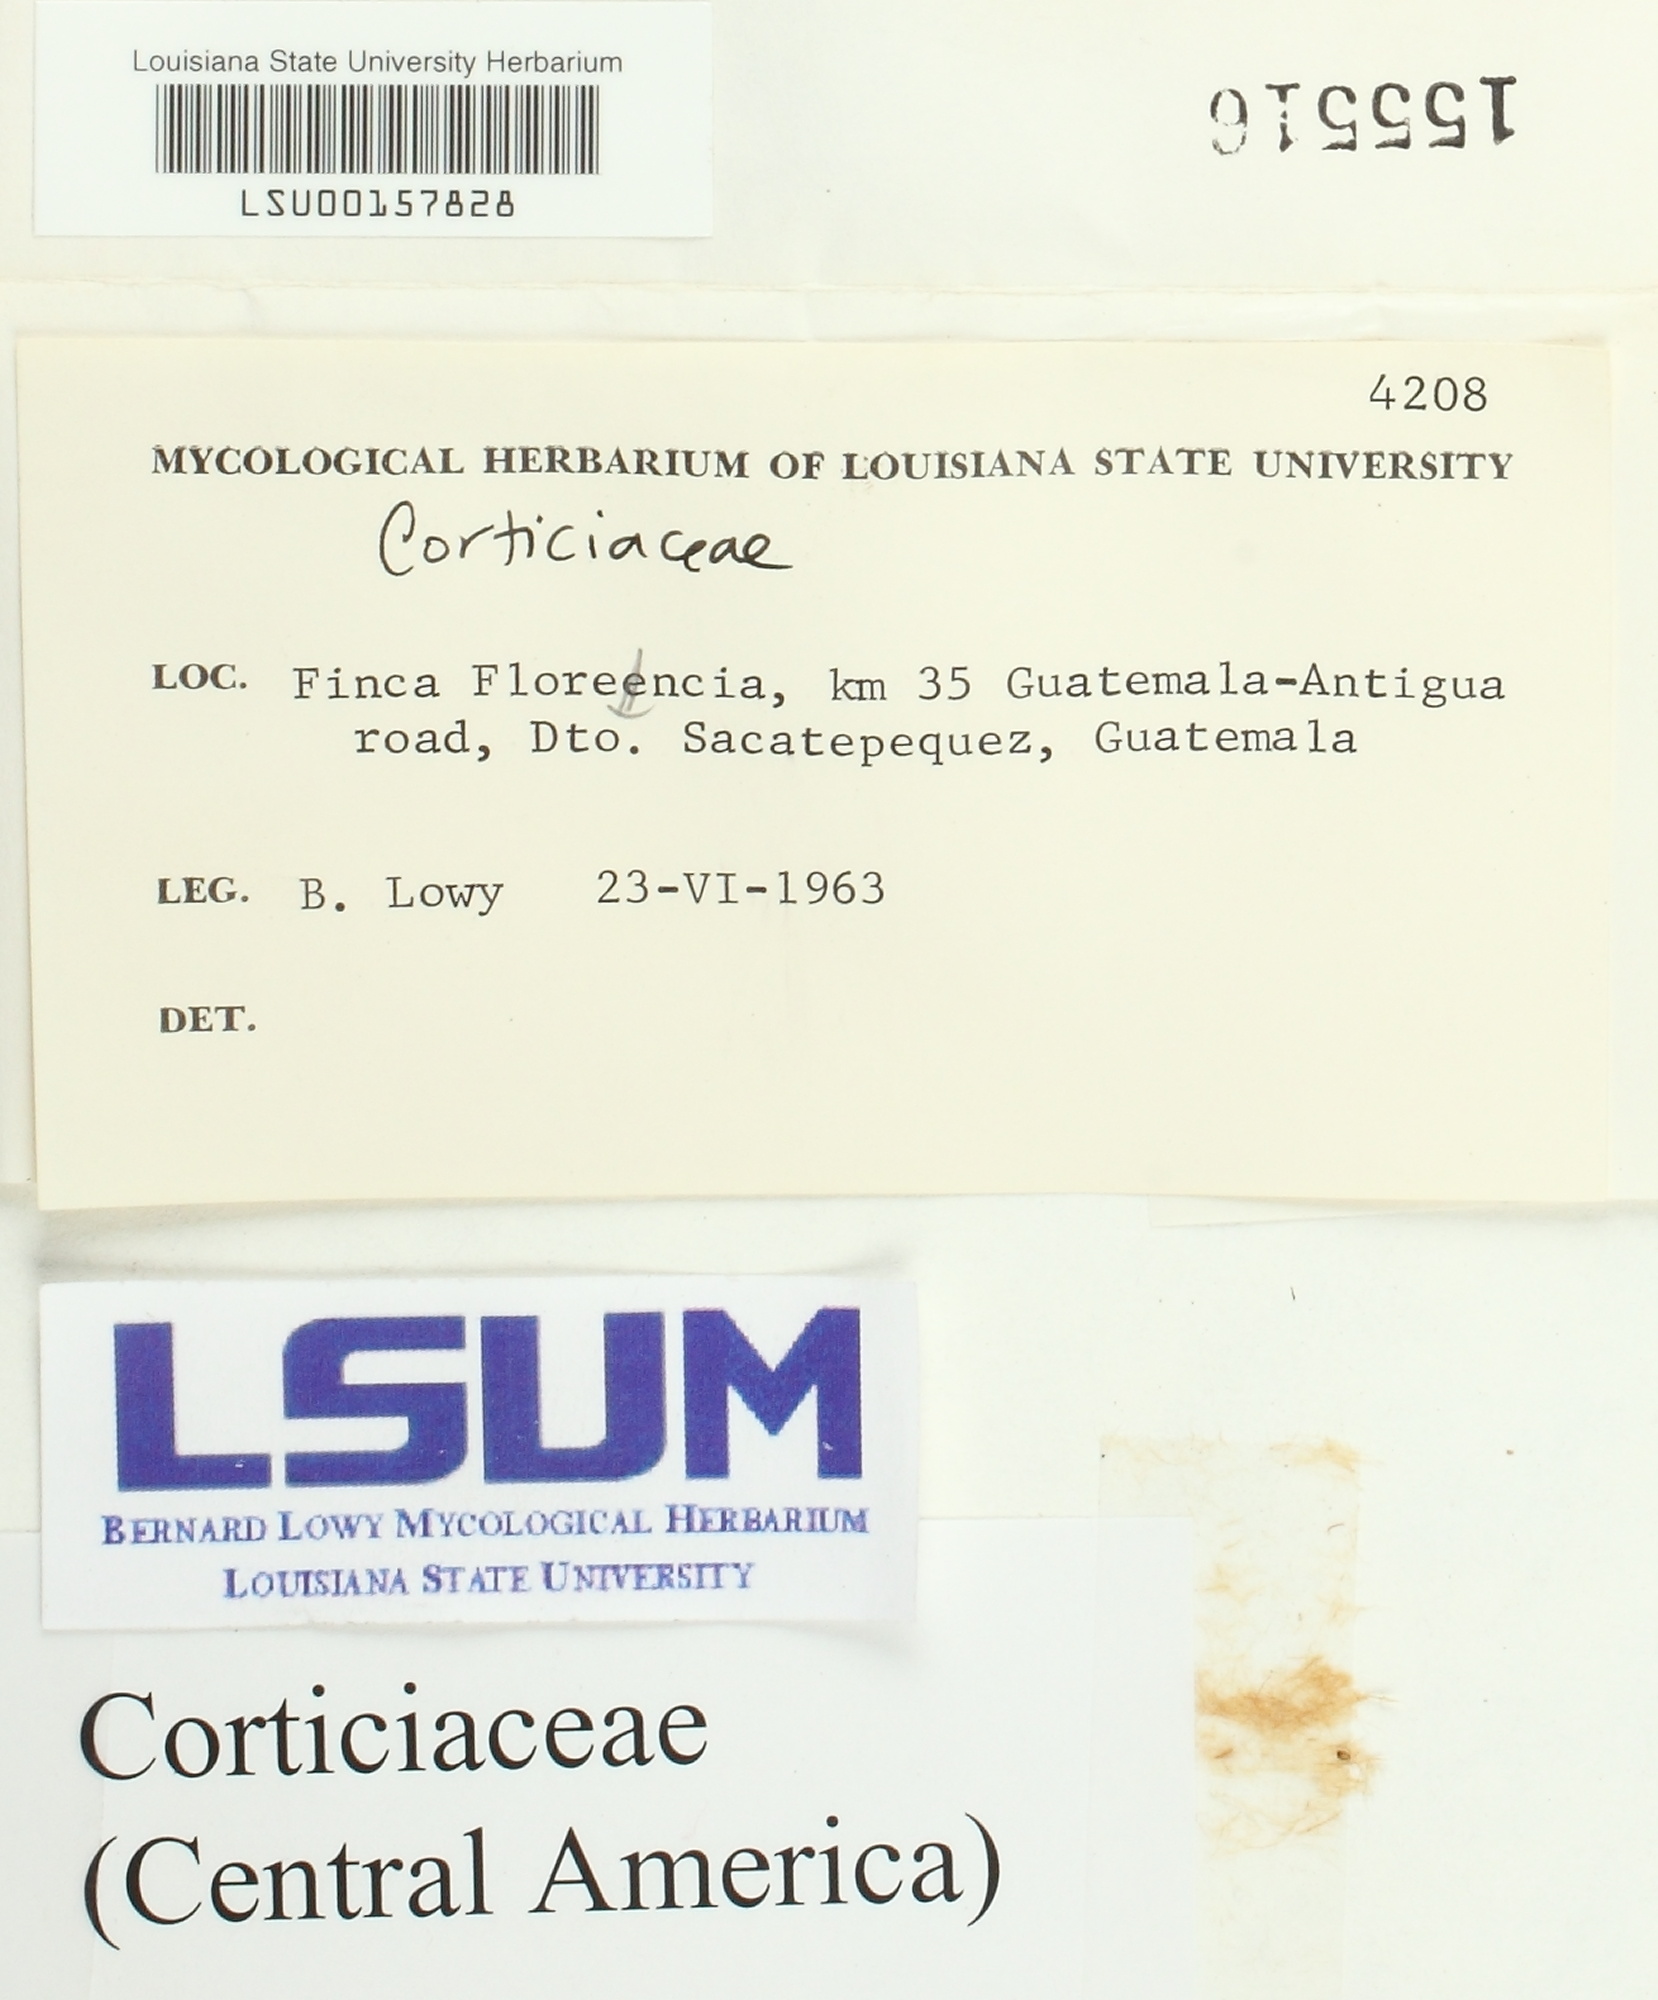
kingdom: Fungi
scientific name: Fungi
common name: Fungi
